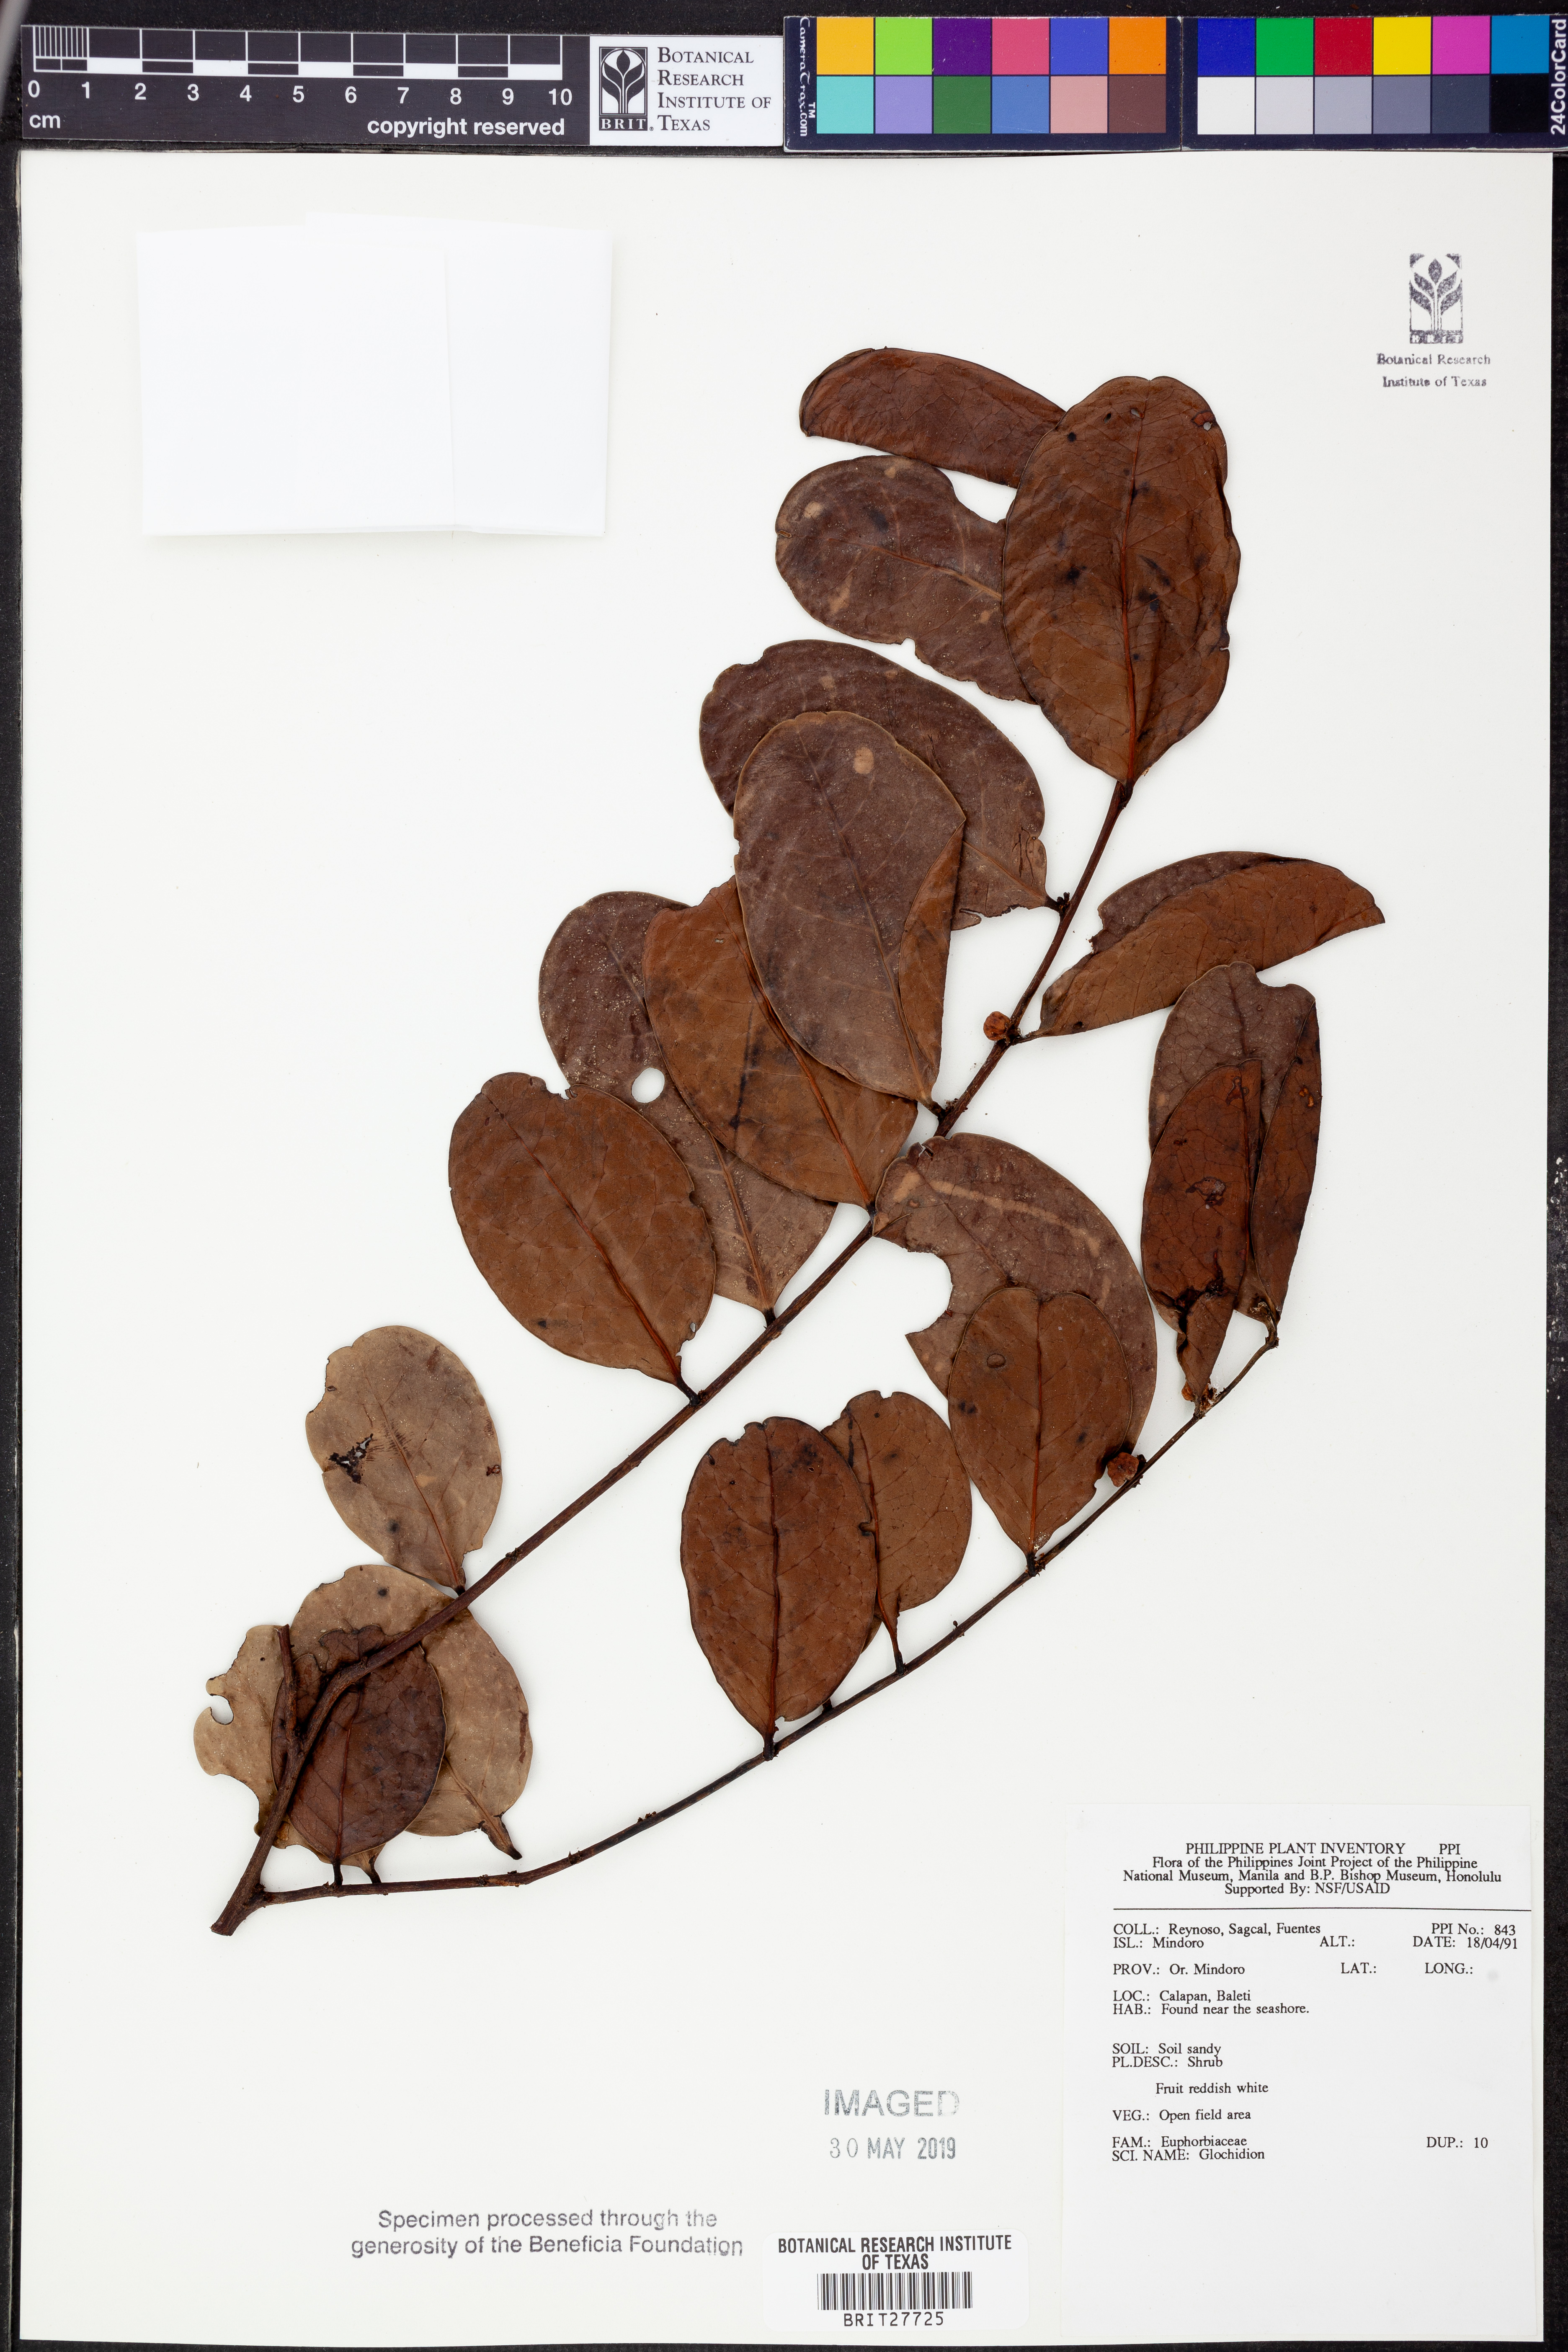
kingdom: Plantae
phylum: Tracheophyta
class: Magnoliopsida
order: Malpighiales
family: Phyllanthaceae
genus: Glochidion
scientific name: Glochidion
